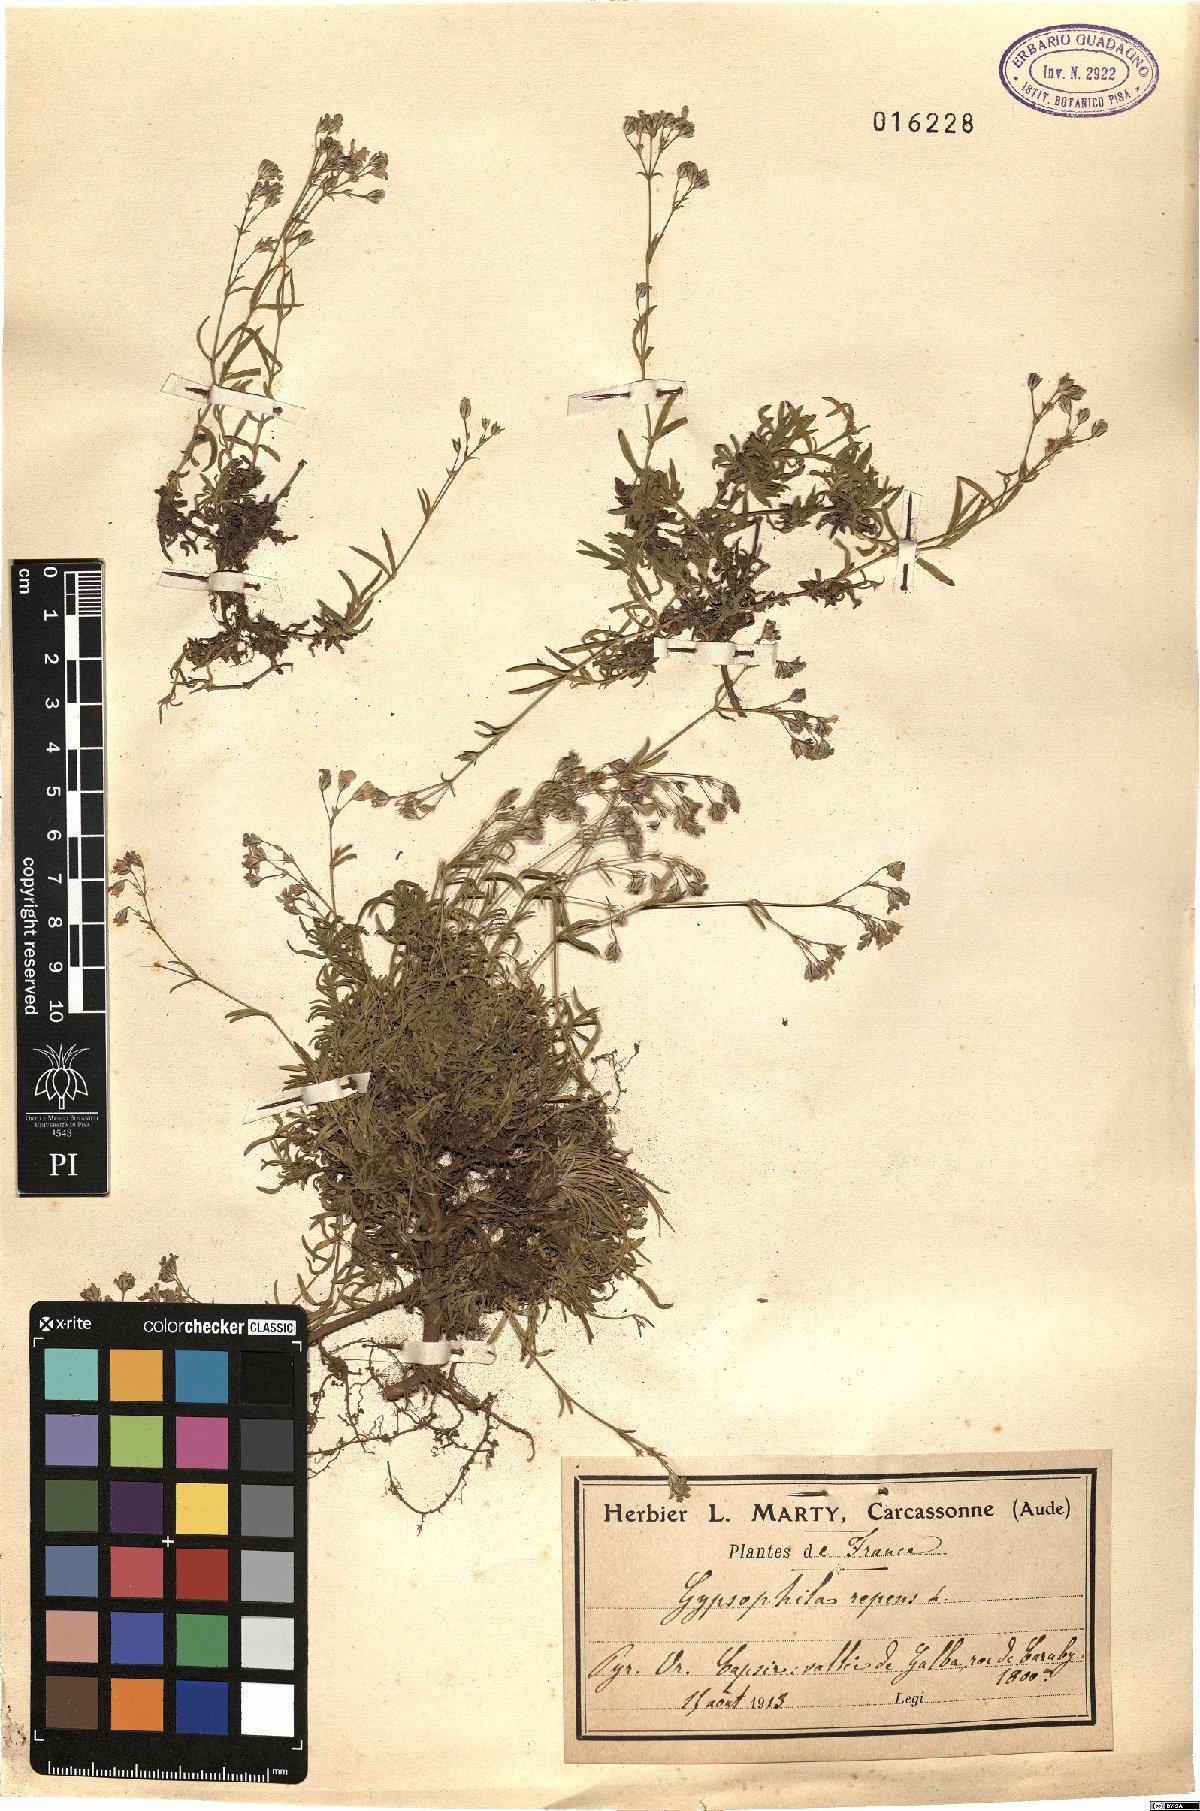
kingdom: Plantae
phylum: Tracheophyta
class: Magnoliopsida
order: Caryophyllales
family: Caryophyllaceae
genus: Gypsophila
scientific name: Gypsophila repens
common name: Creeping baby's-breath
